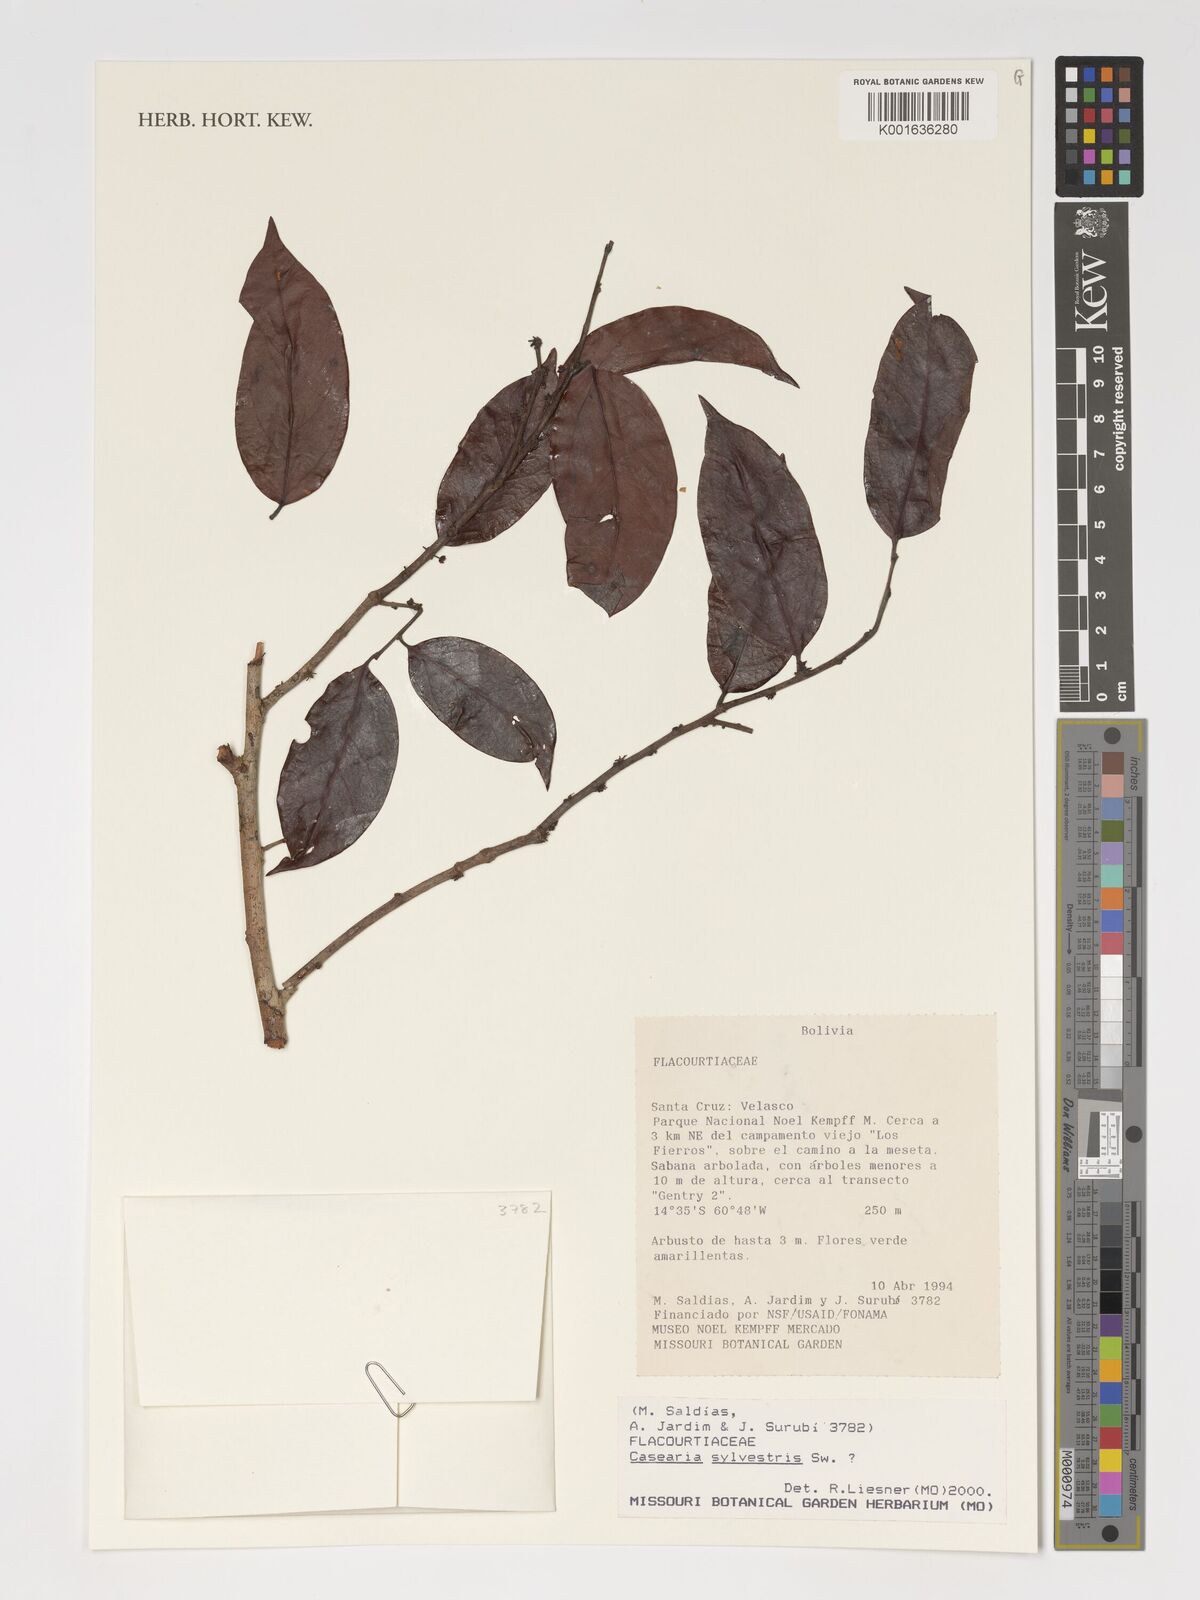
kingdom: Plantae
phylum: Tracheophyta
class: Magnoliopsida
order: Malpighiales
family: Salicaceae
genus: Casearia
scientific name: Casearia sylvestris
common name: Wild sage
